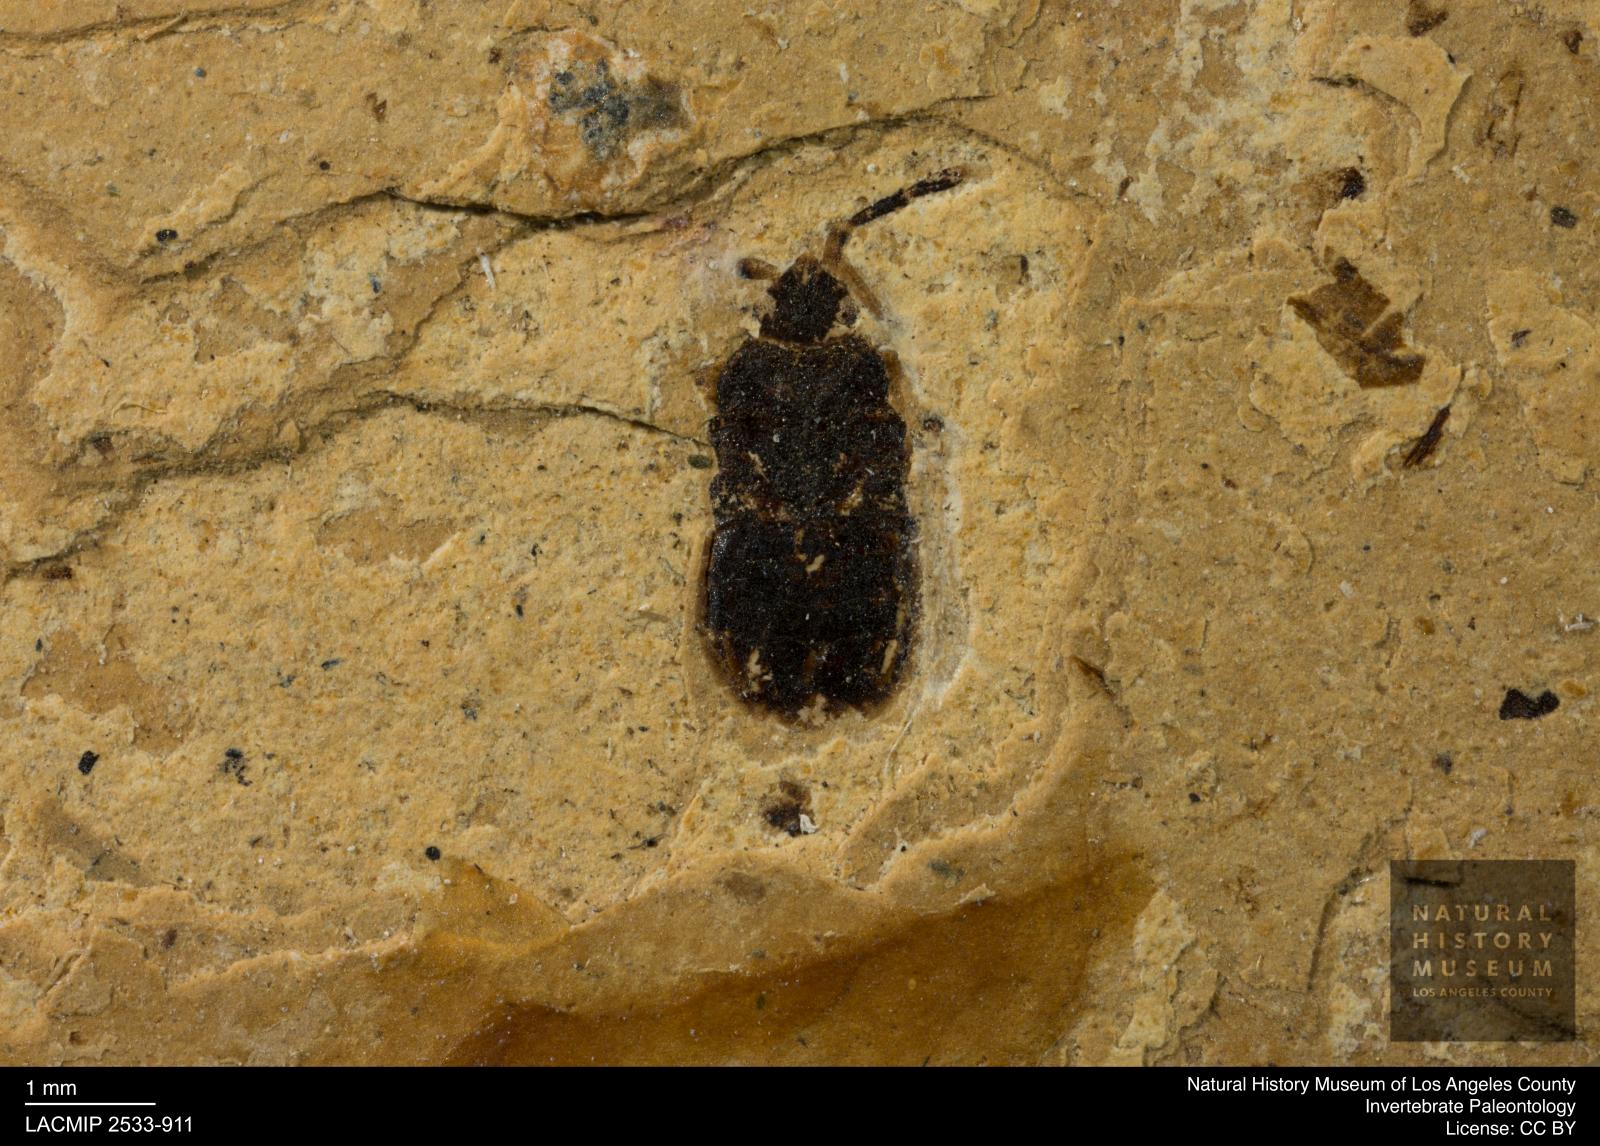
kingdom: Animalia
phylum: Arthropoda
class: Insecta
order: Hemiptera
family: Lygaeidae
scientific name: Lygaeidae
